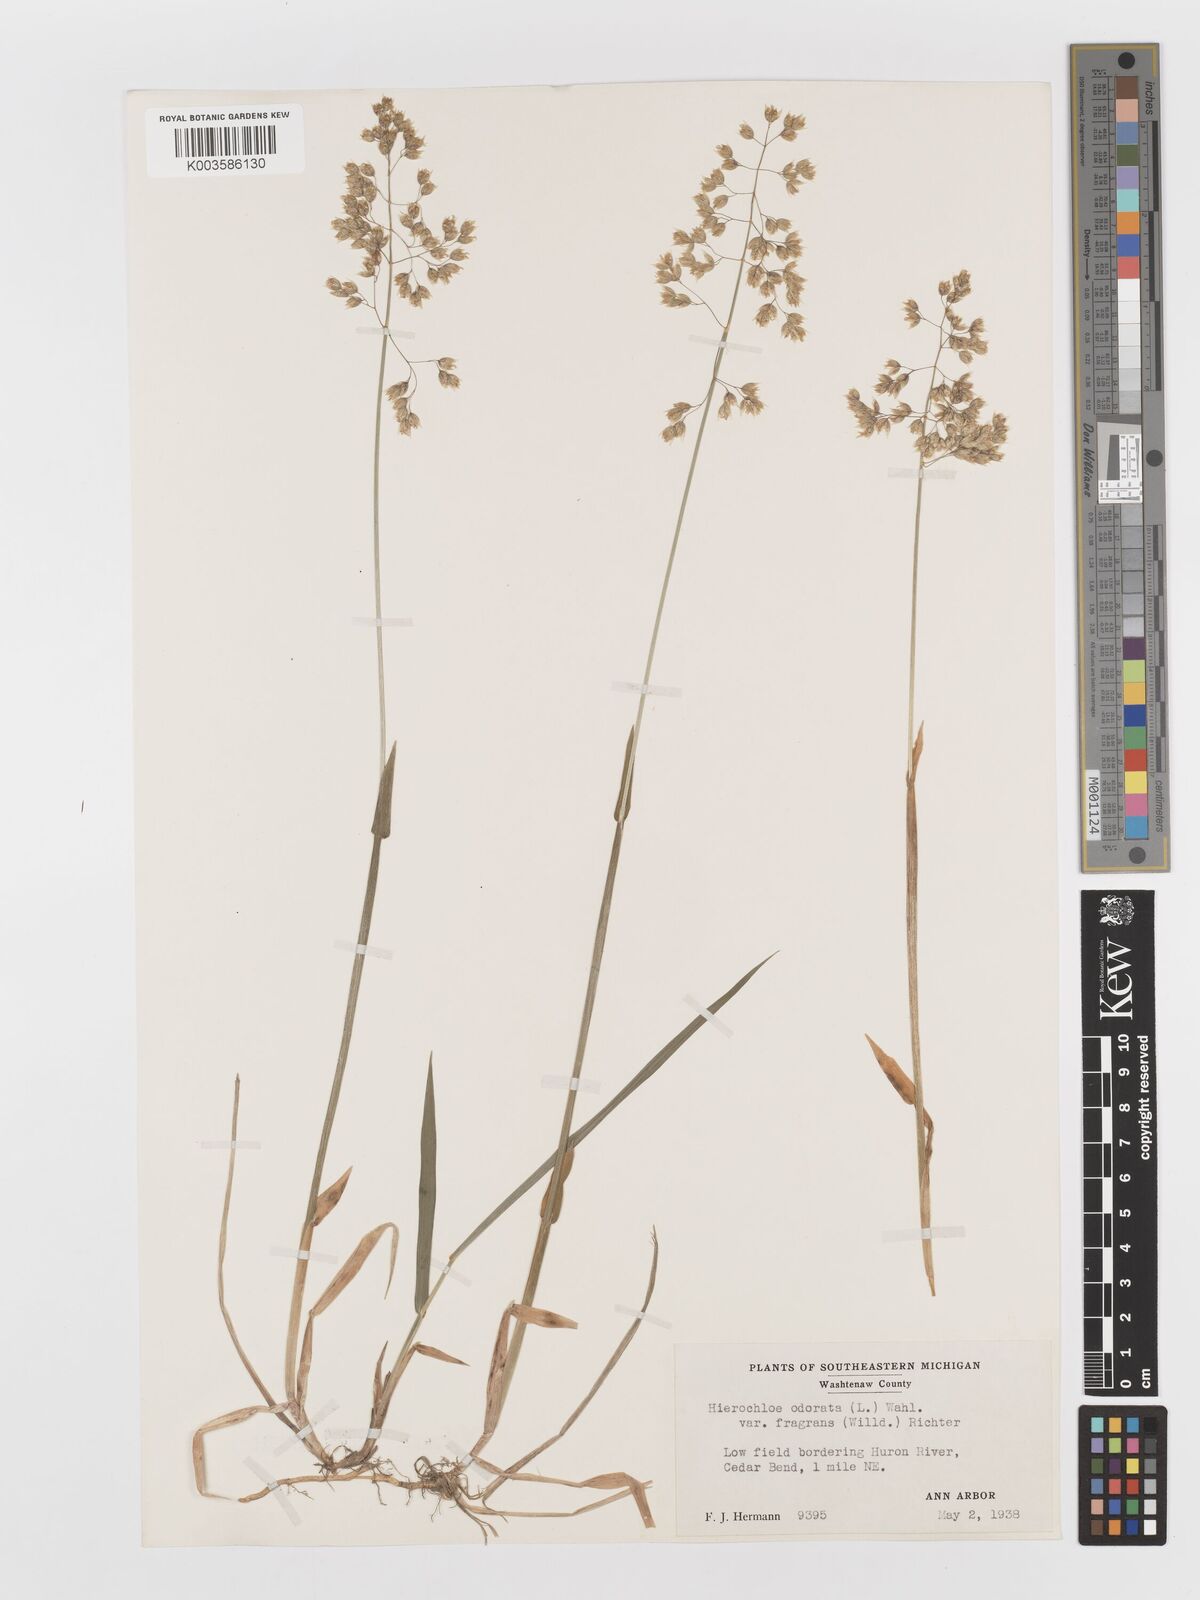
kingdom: Plantae
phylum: Tracheophyta
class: Liliopsida
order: Poales
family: Poaceae
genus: Anthoxanthum
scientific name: Anthoxanthum nitens
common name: Holy grass
